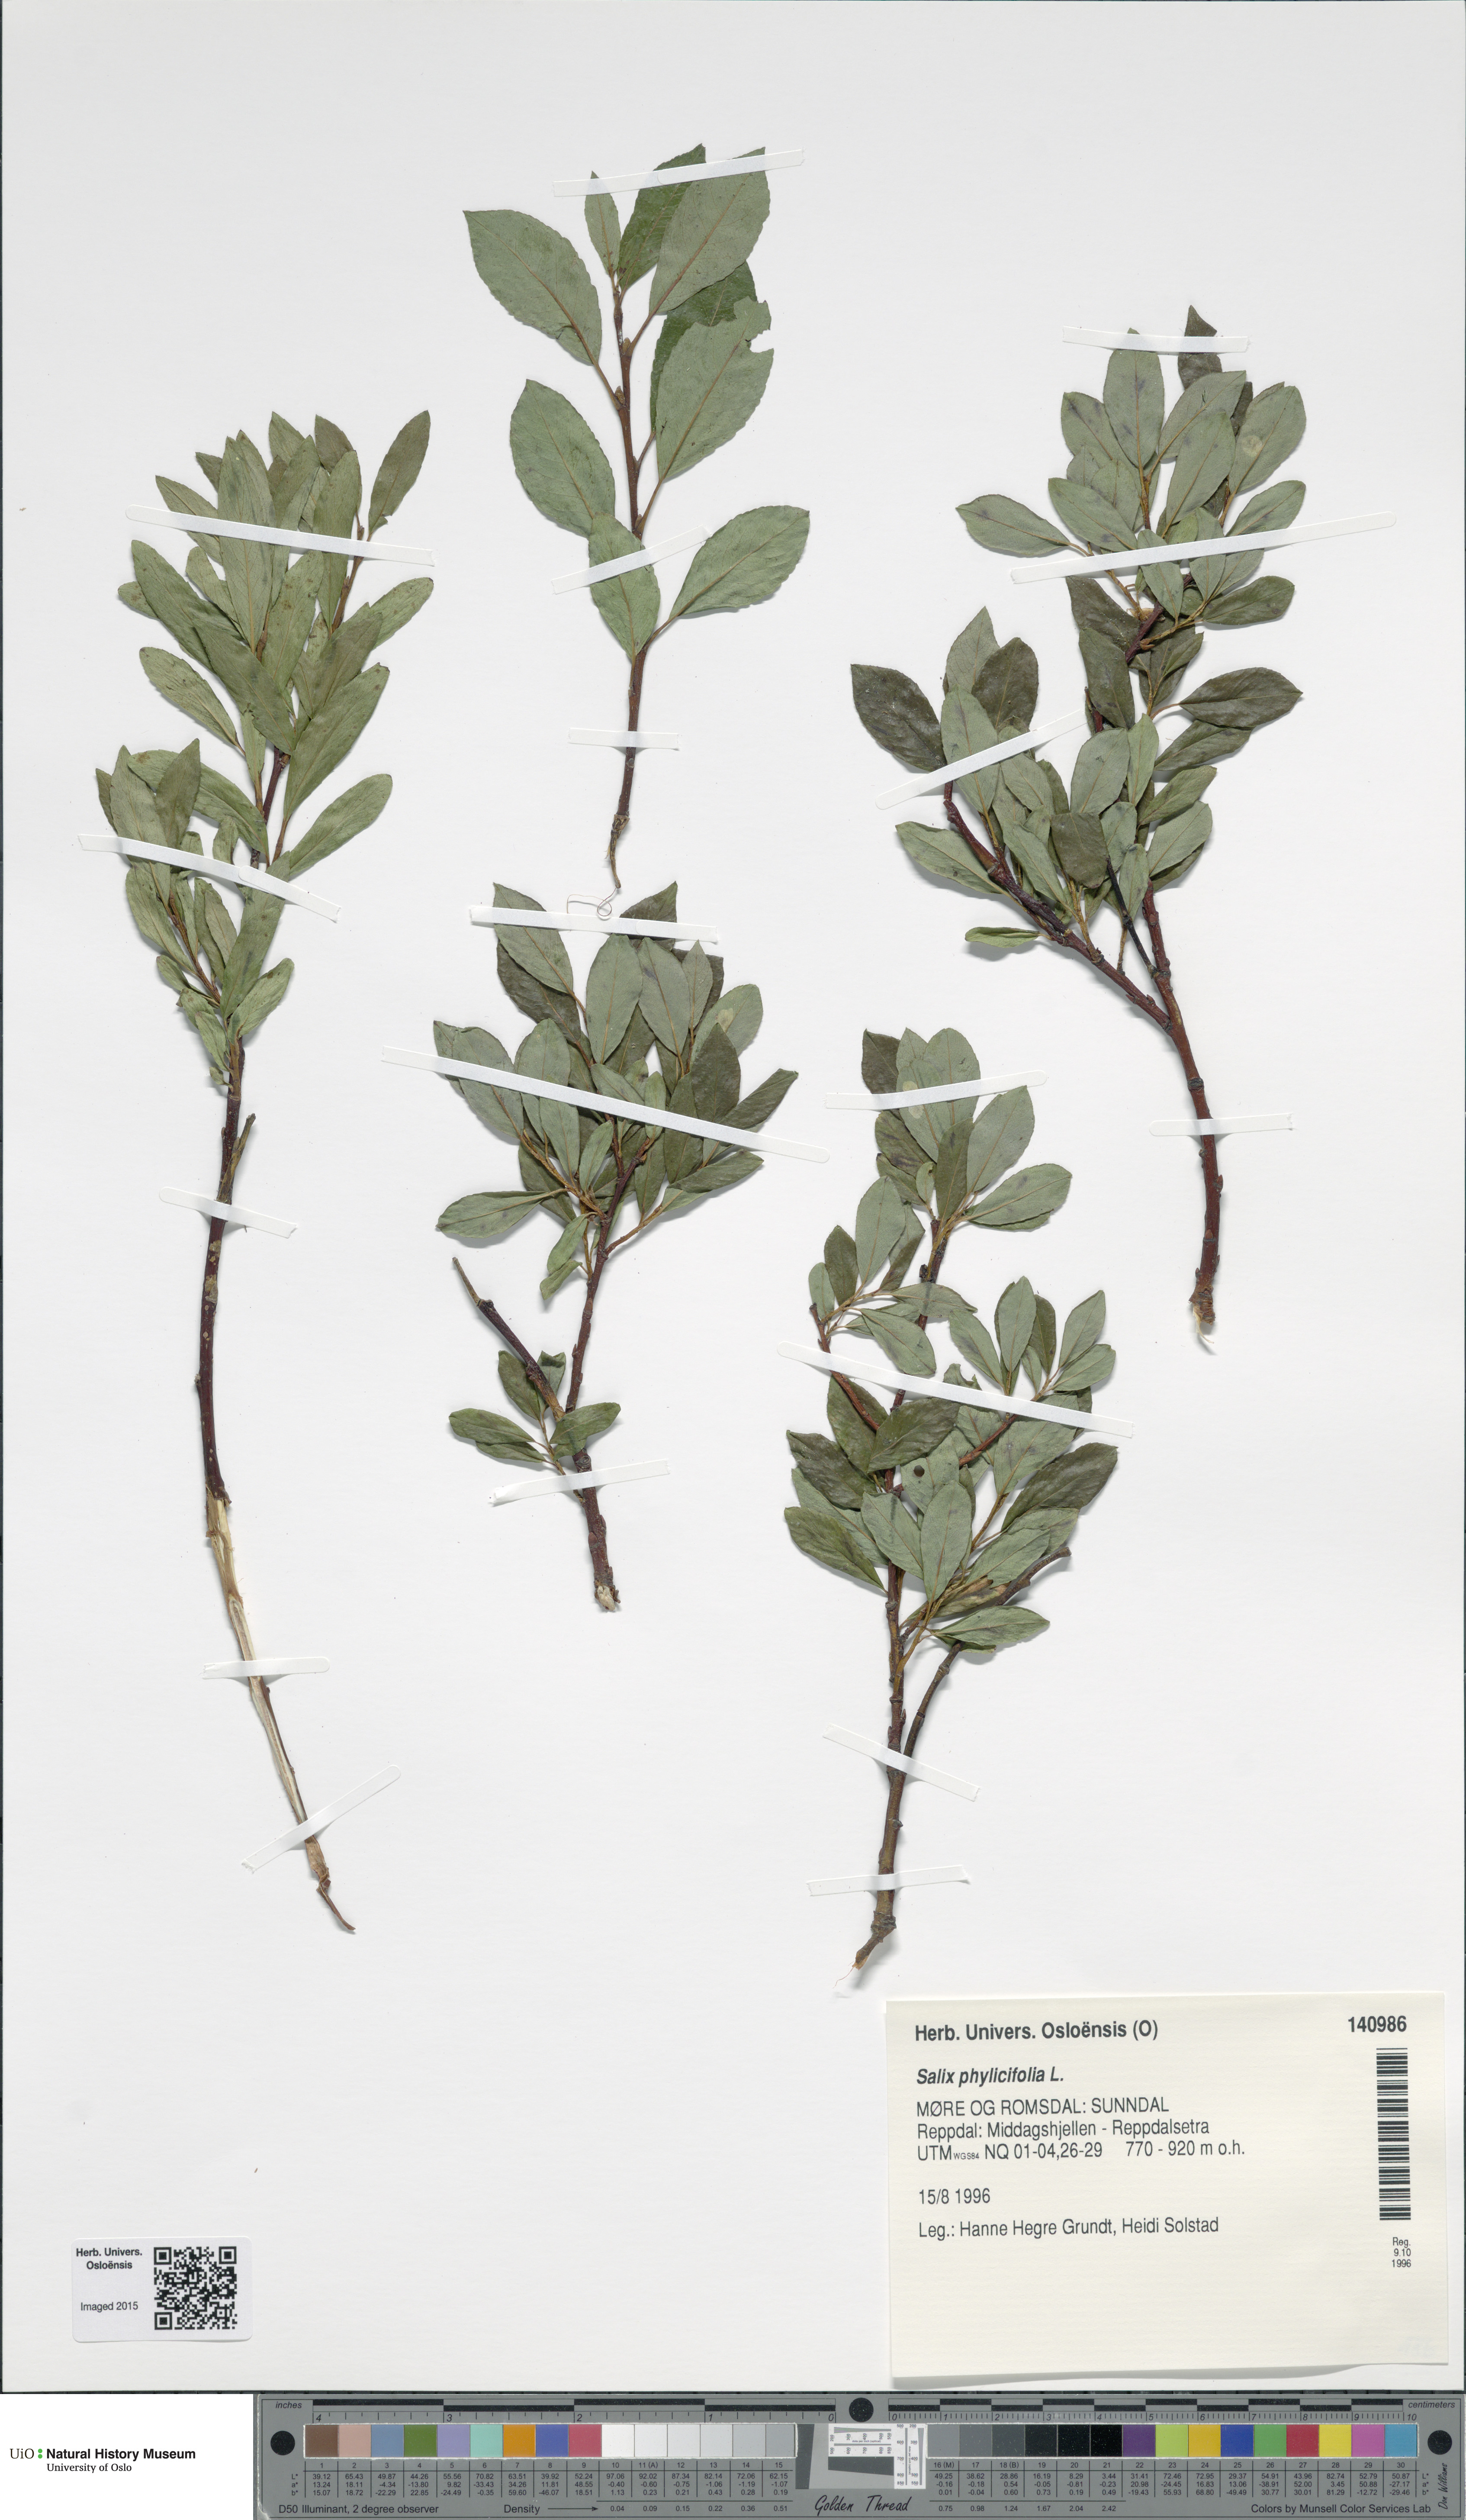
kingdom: Plantae
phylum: Tracheophyta
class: Magnoliopsida
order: Malpighiales
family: Salicaceae
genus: Salix
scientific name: Salix phylicifolia
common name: Tea-leaved willow
